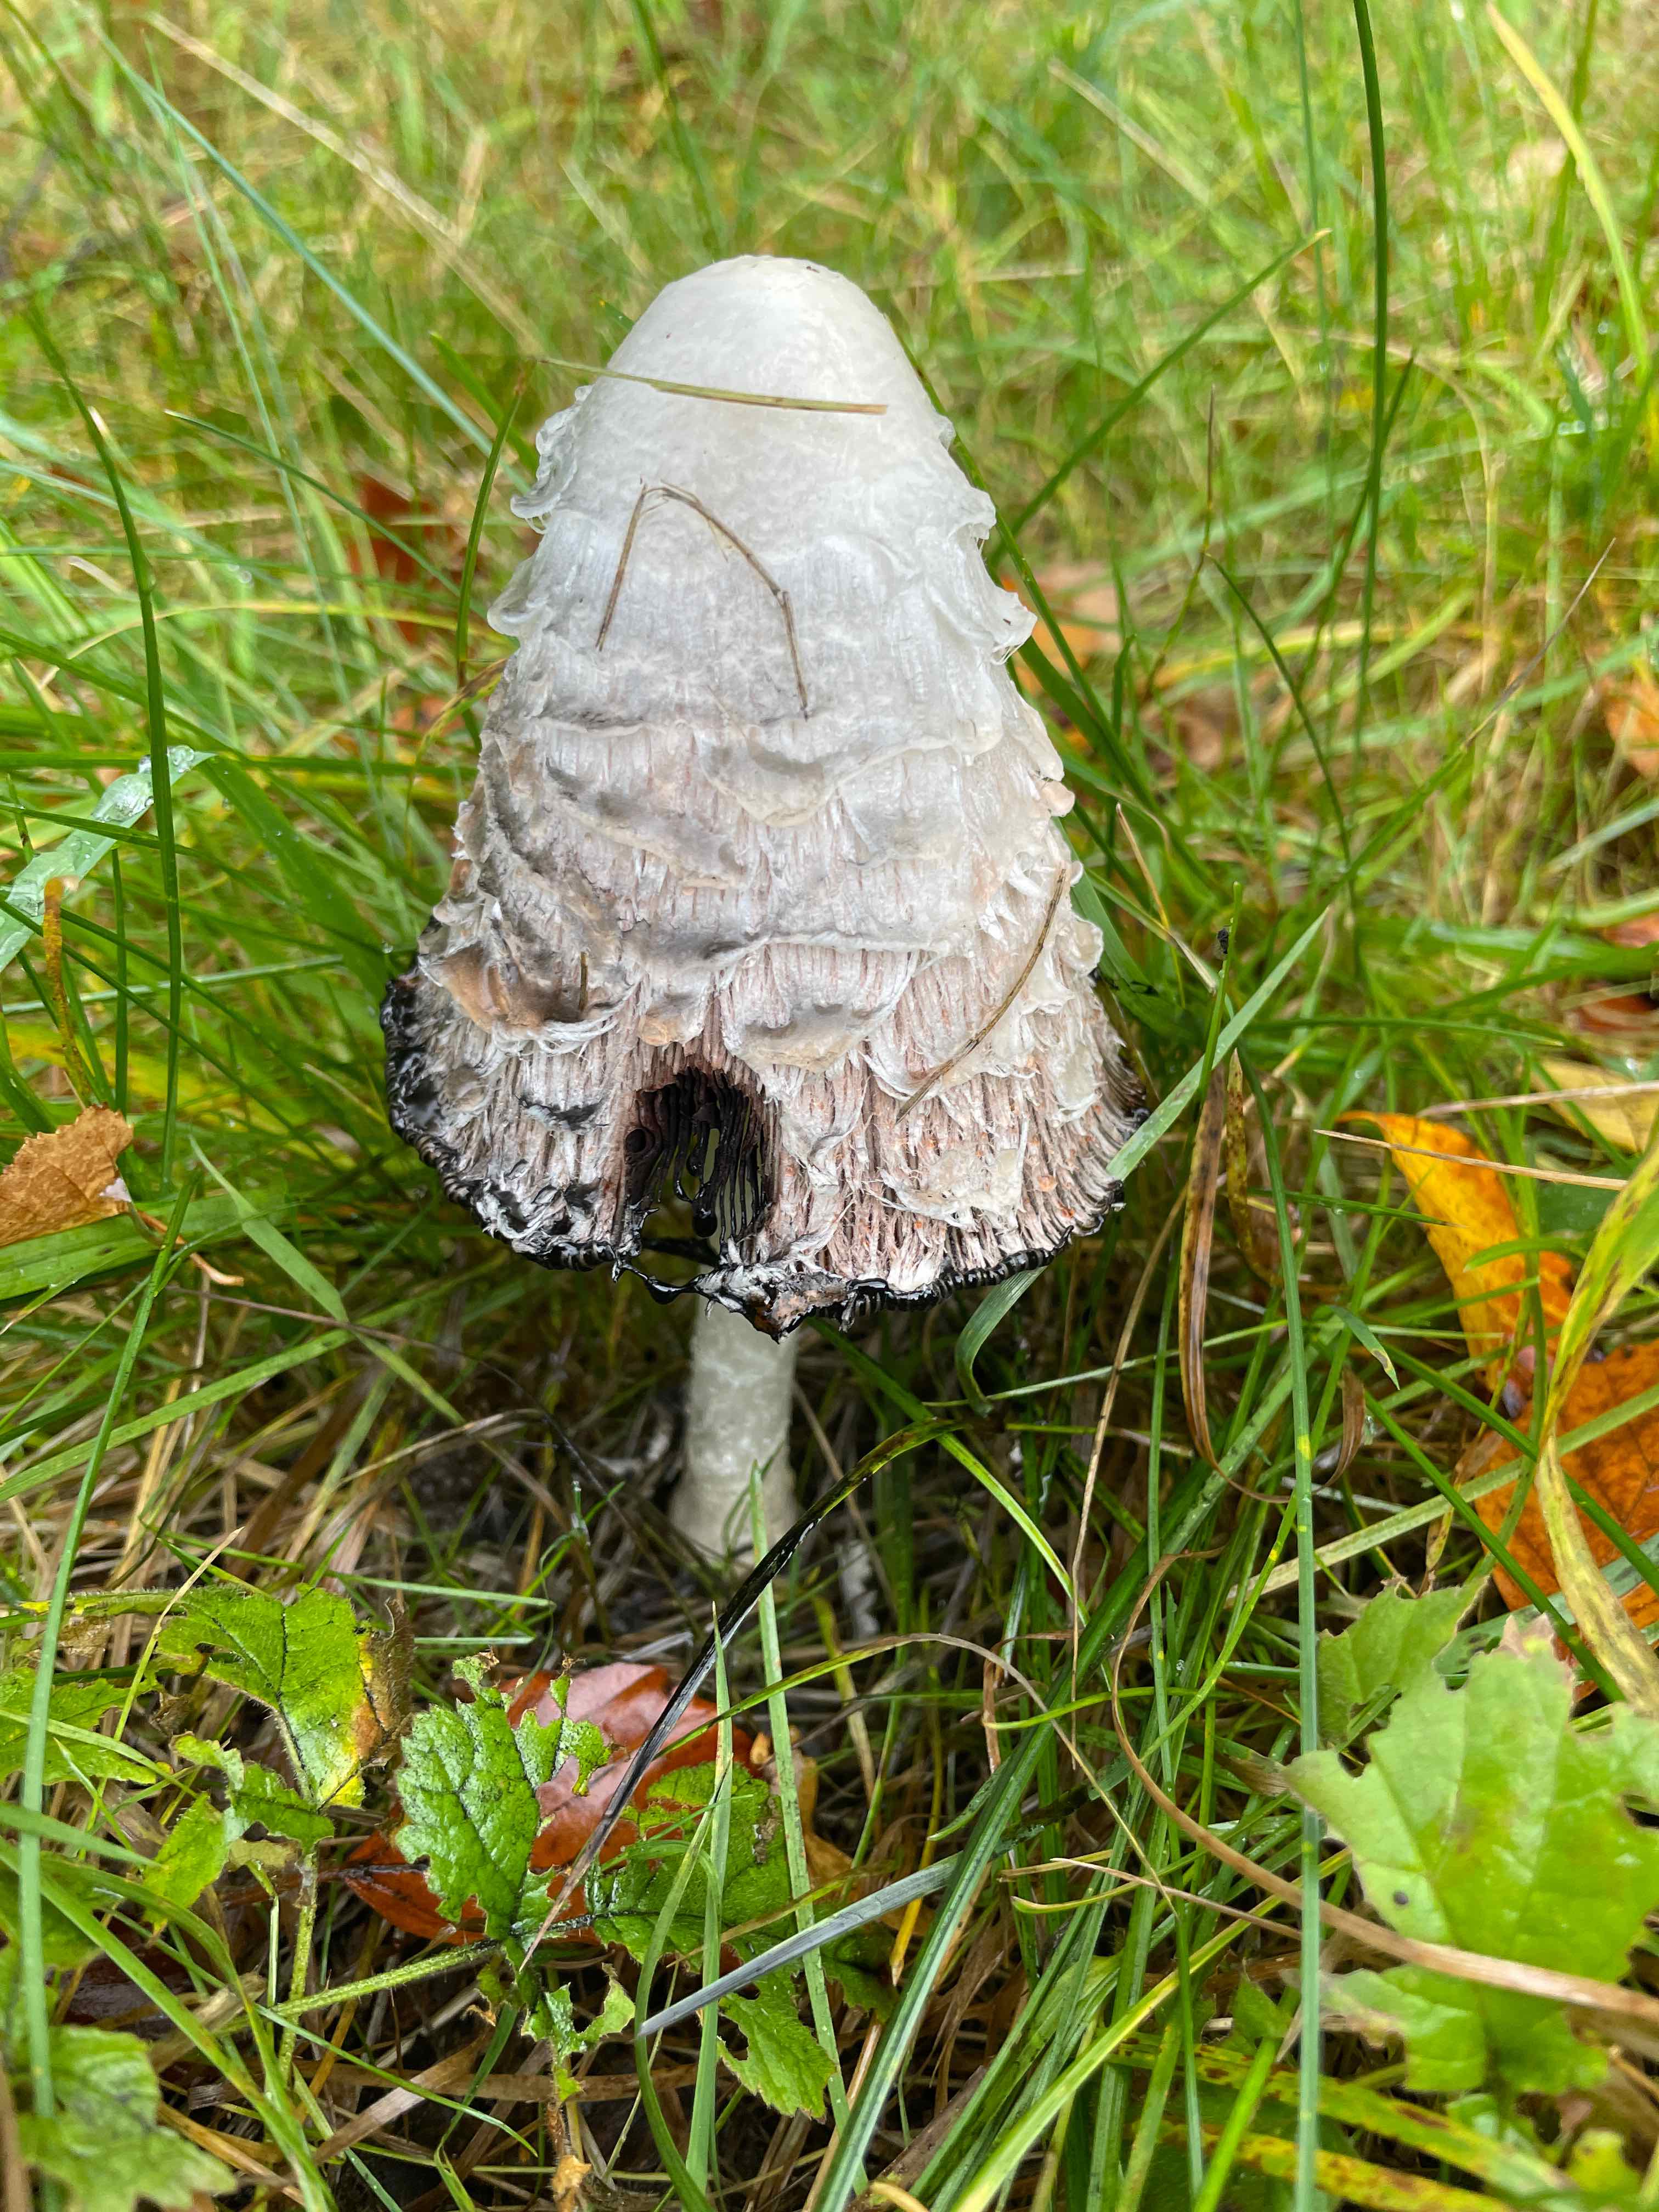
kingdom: Fungi
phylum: Basidiomycota
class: Agaricomycetes
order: Agaricales
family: Agaricaceae
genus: Coprinus
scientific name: Coprinus comatus
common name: stor parykhat
